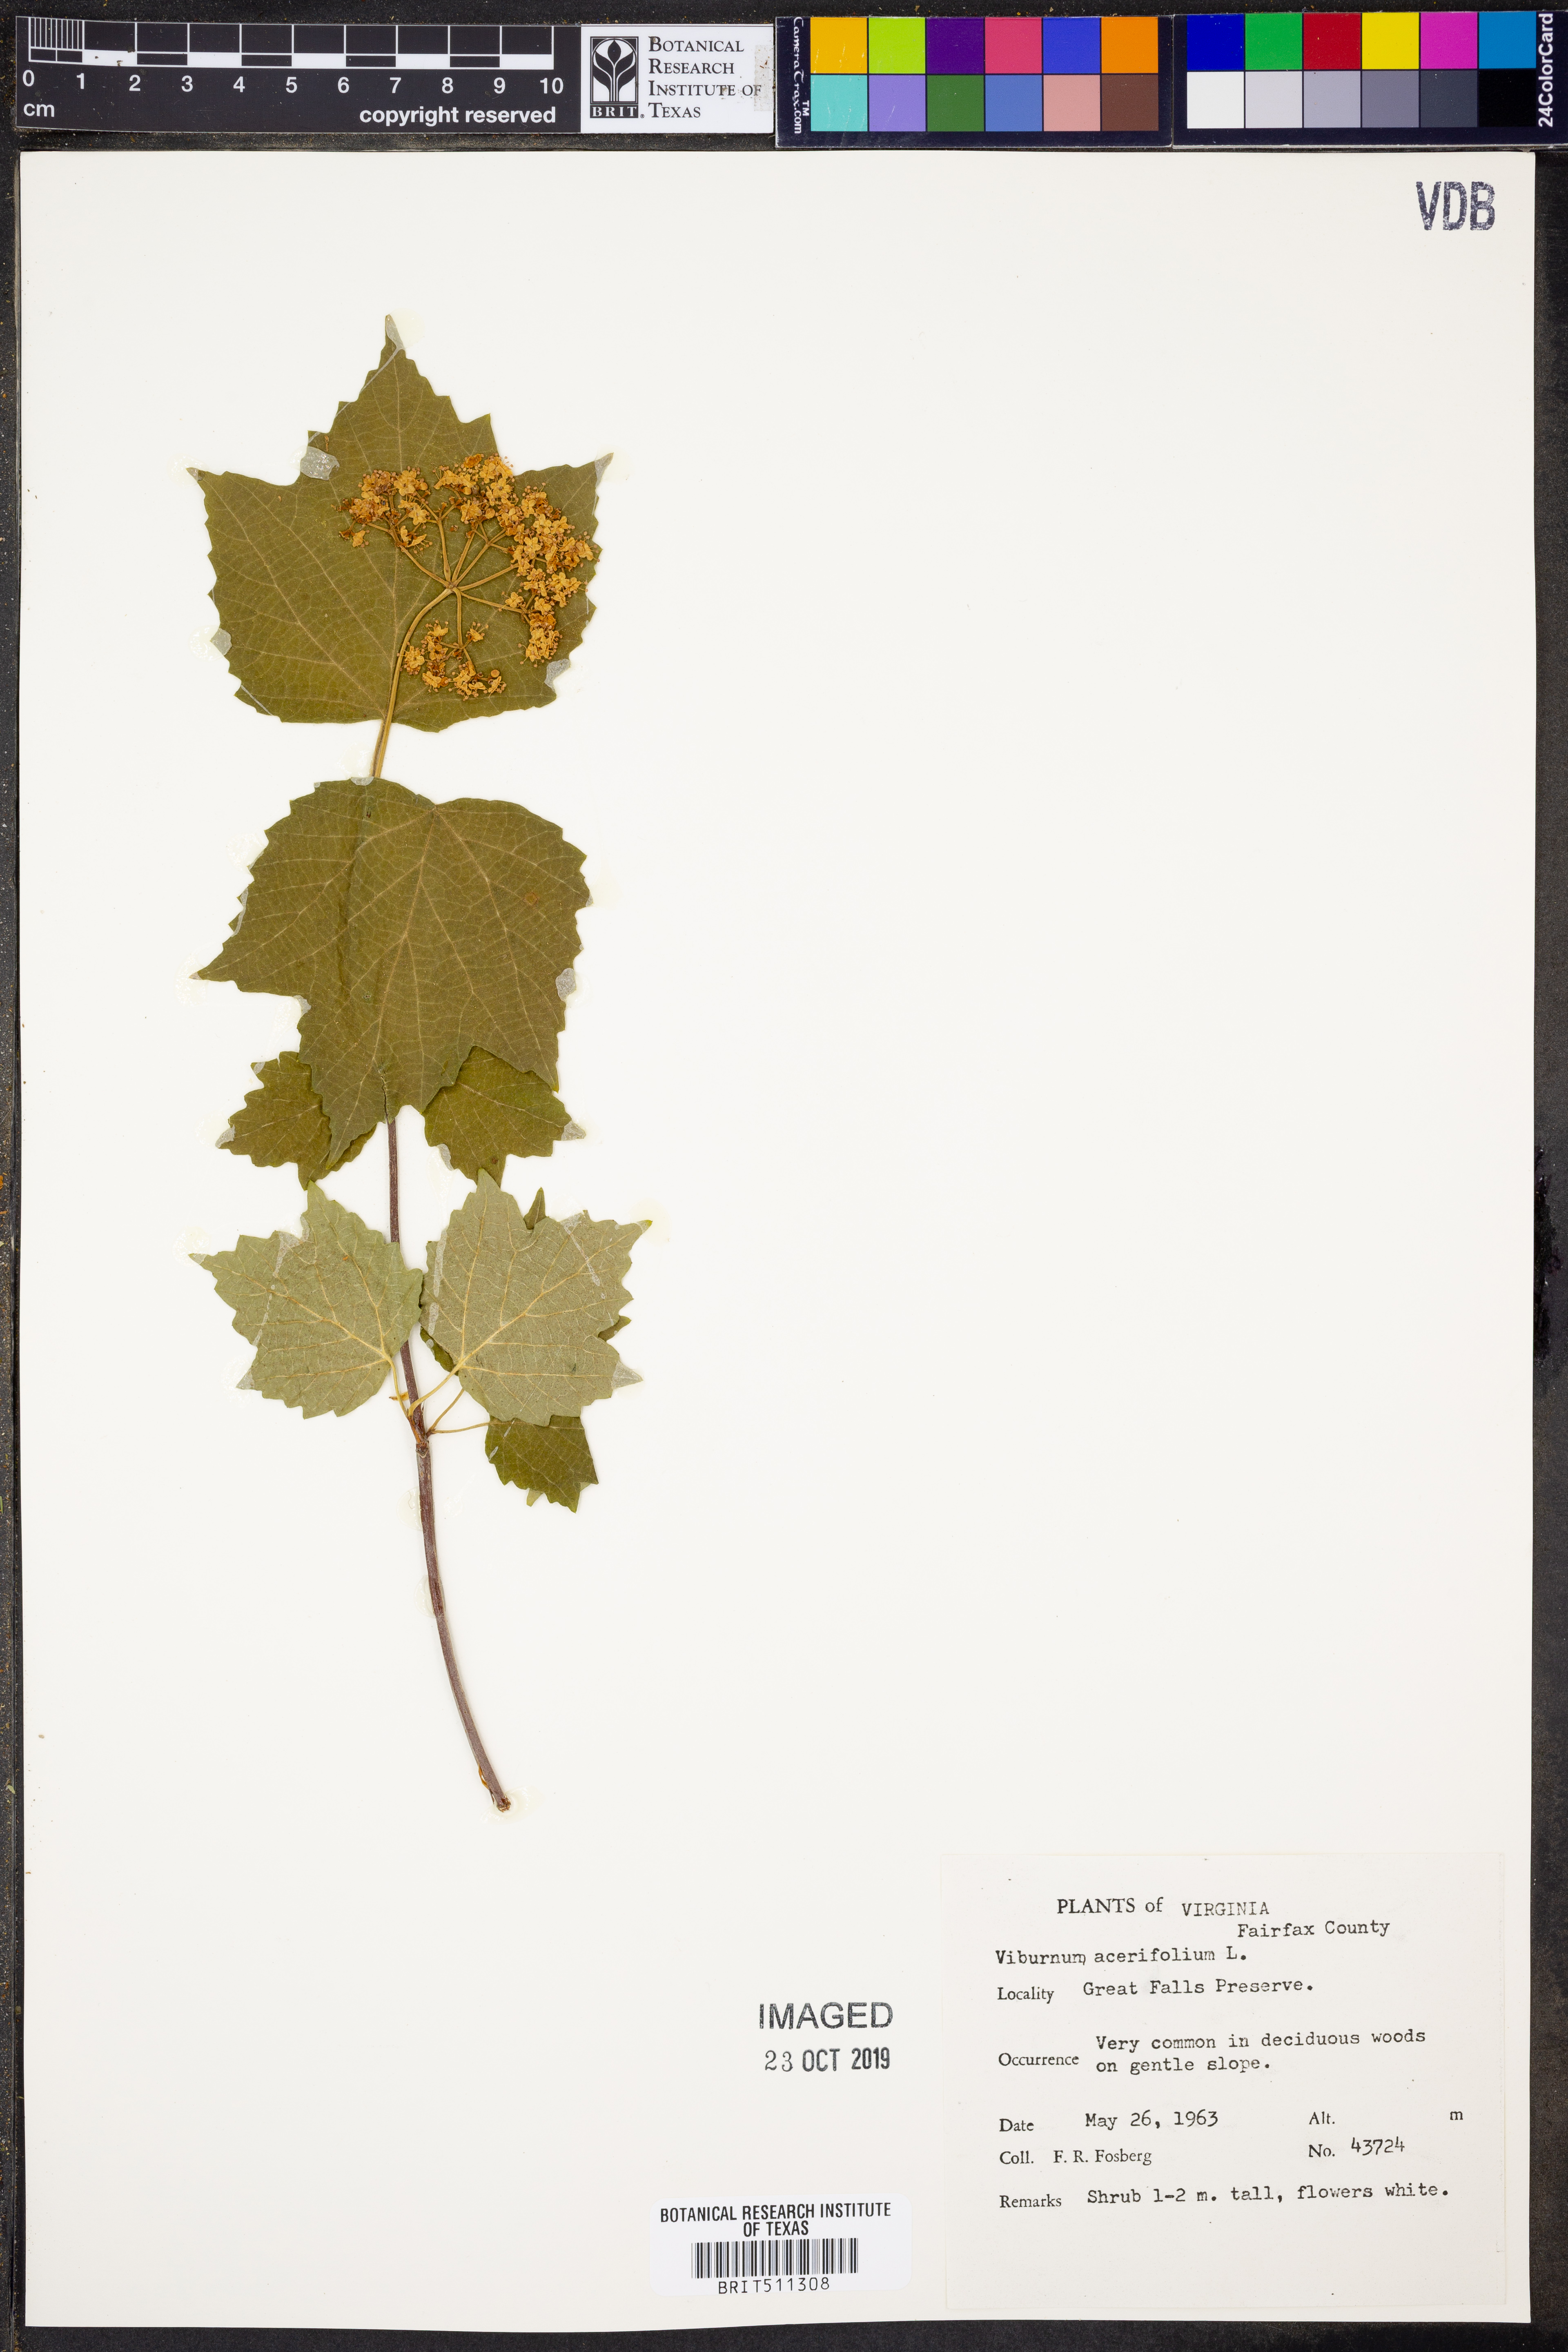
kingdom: Plantae
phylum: Tracheophyta
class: Magnoliopsida
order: Dipsacales
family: Viburnaceae
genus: Viburnum
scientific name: Viburnum acerifolium
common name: Dockmackie
